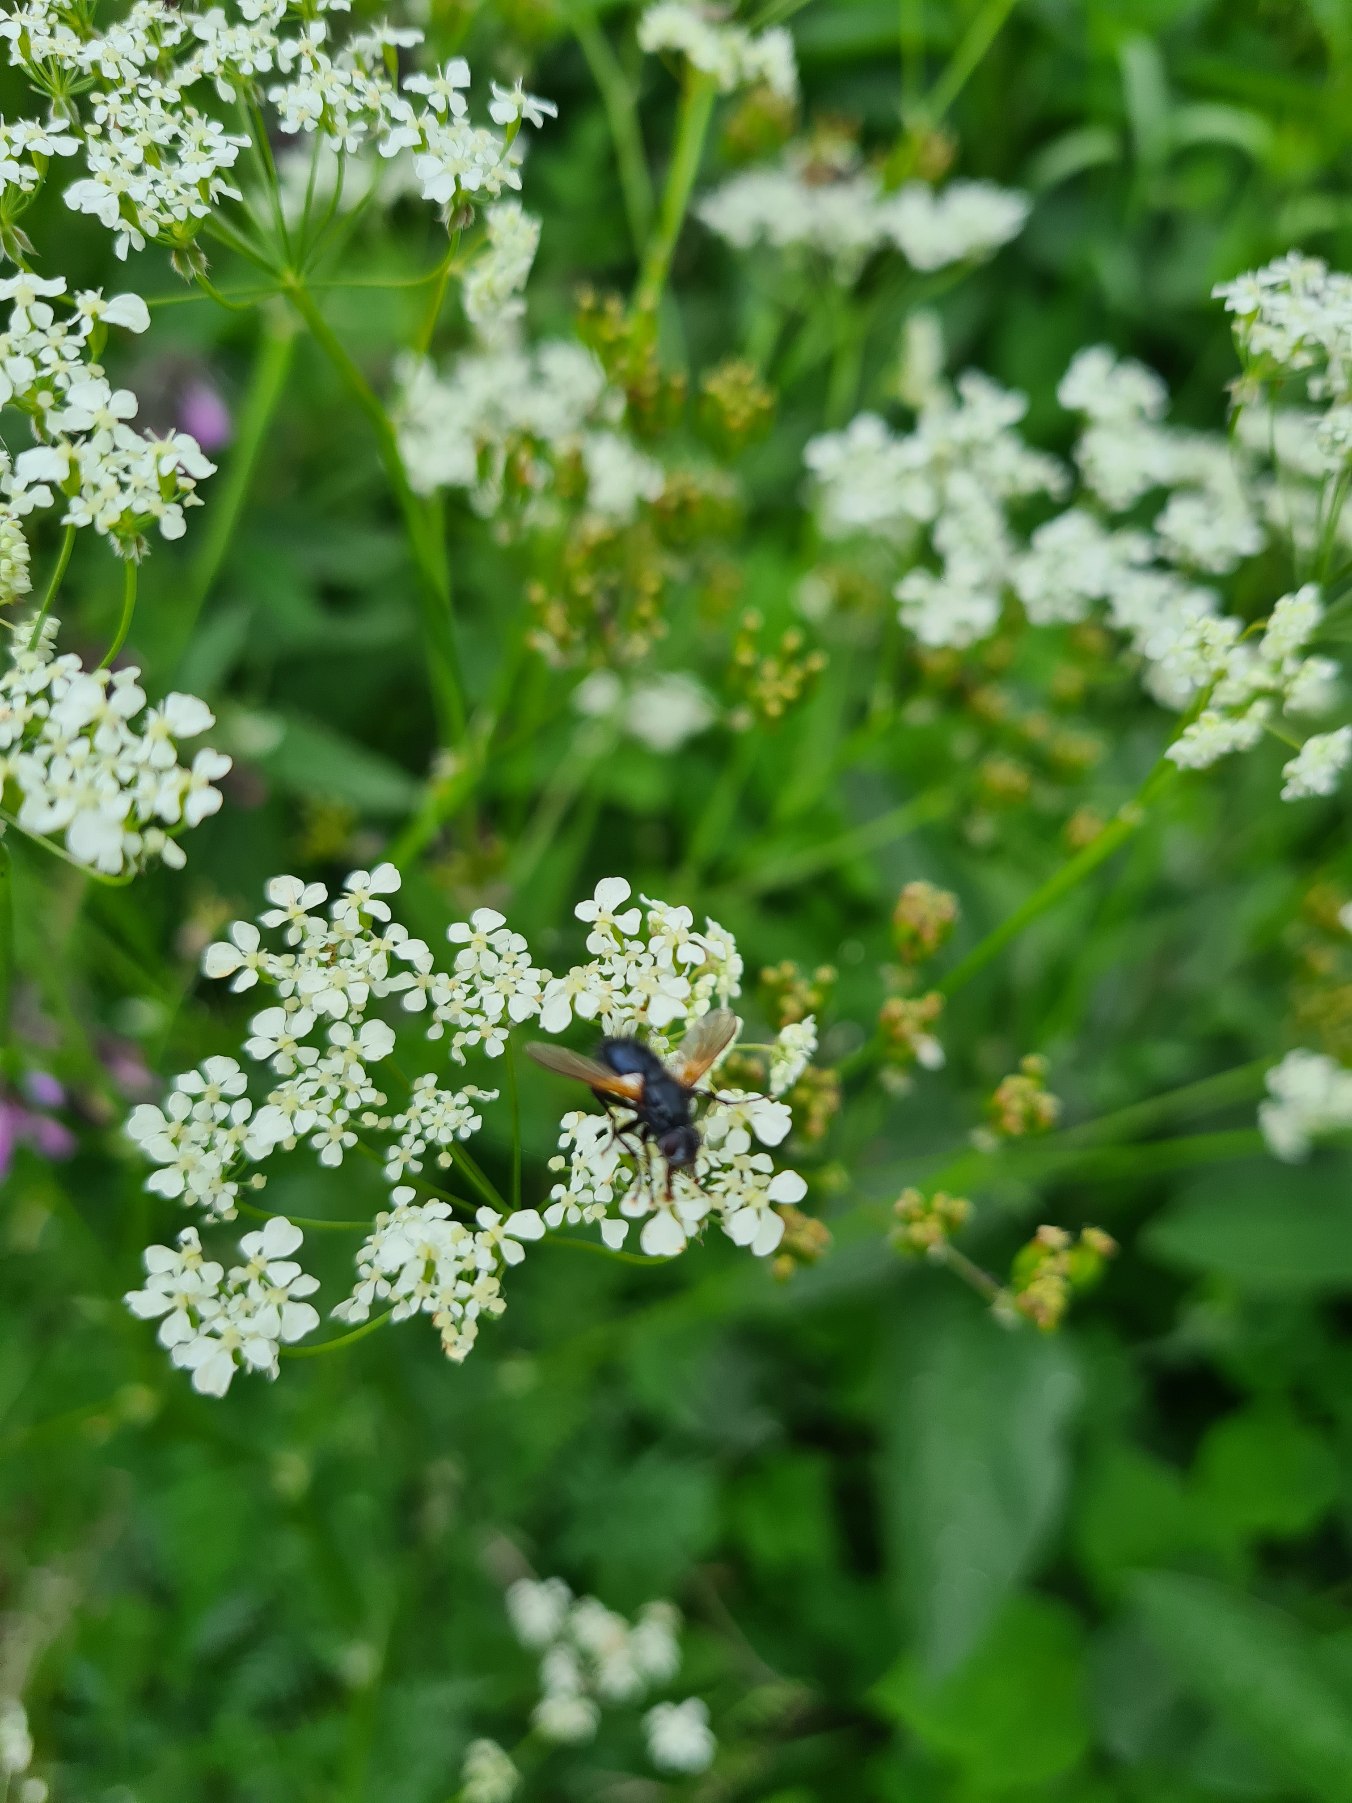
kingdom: Animalia
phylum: Arthropoda
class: Insecta
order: Diptera
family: Tachinidae
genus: Zophomyia
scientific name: Zophomyia temula
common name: Gulvinget snylteflue
